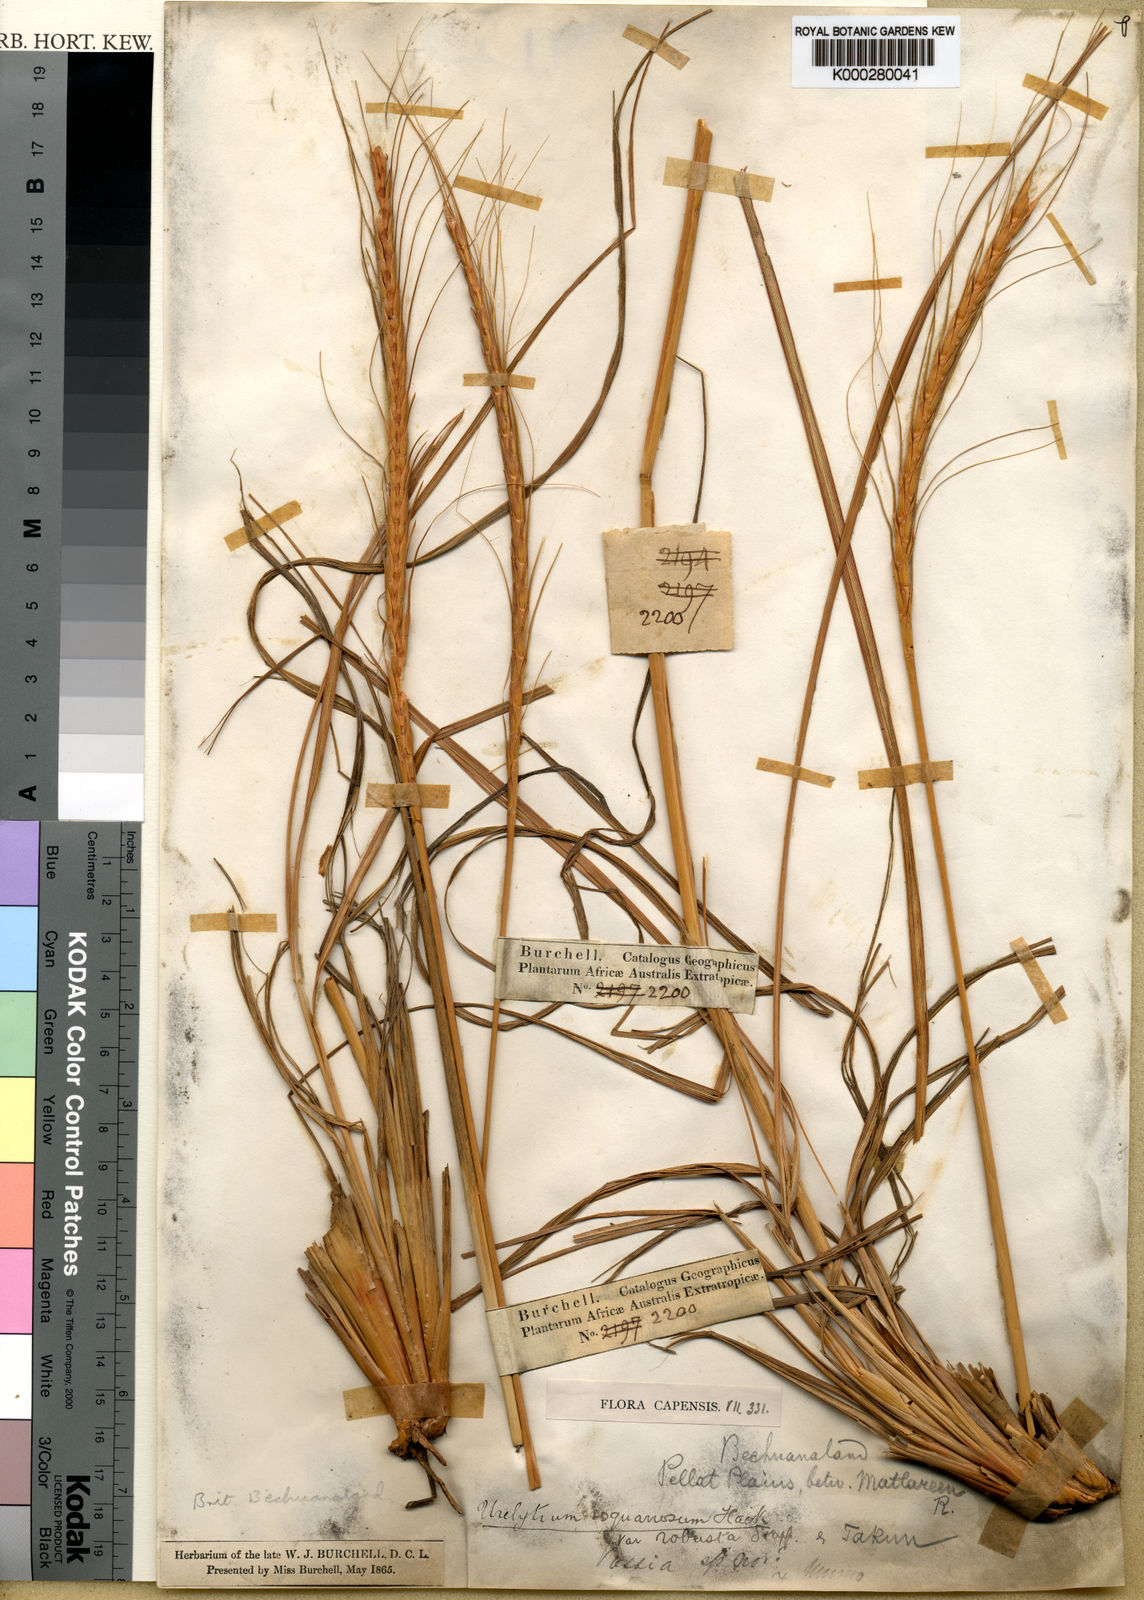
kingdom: Plantae
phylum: Tracheophyta
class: Liliopsida
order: Poales
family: Poaceae
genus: Urelytrum
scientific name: Urelytrum agropyroides
